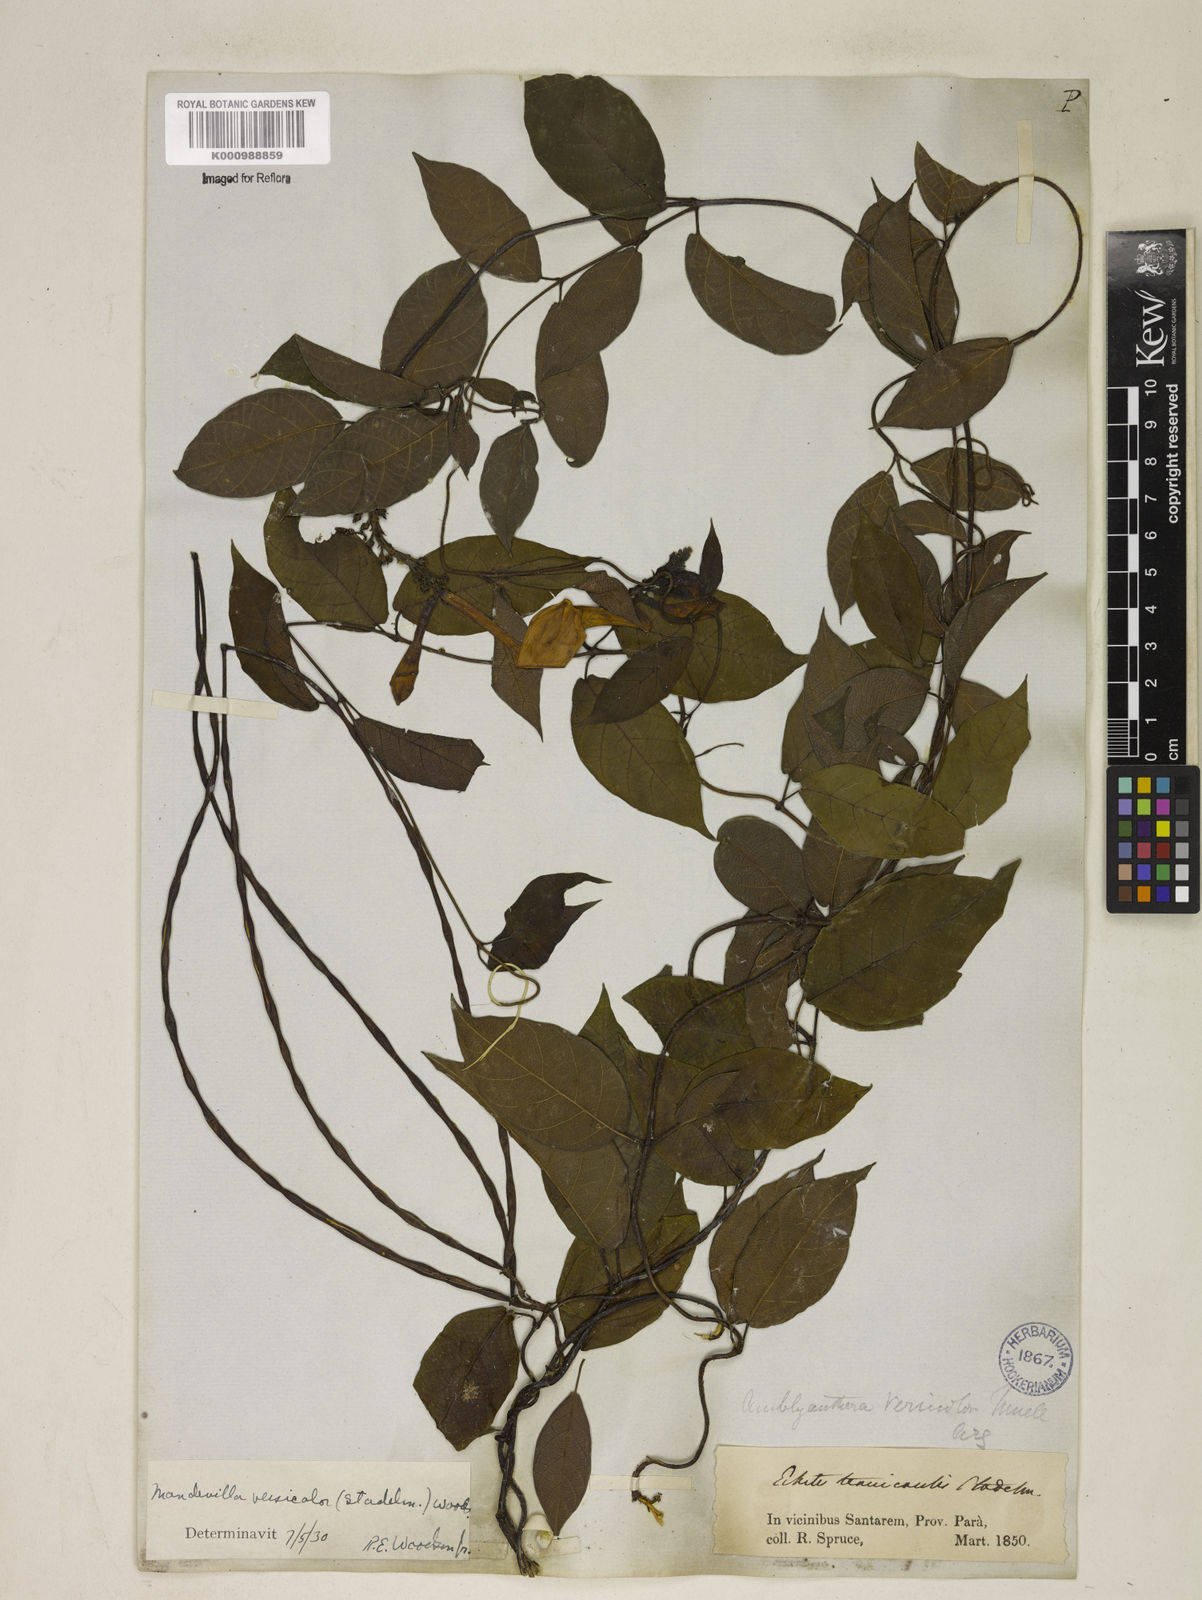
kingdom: Plantae
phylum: Tracheophyta
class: Magnoliopsida
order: Gentianales
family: Apocynaceae
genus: Mandevilla
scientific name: Mandevilla scabra
